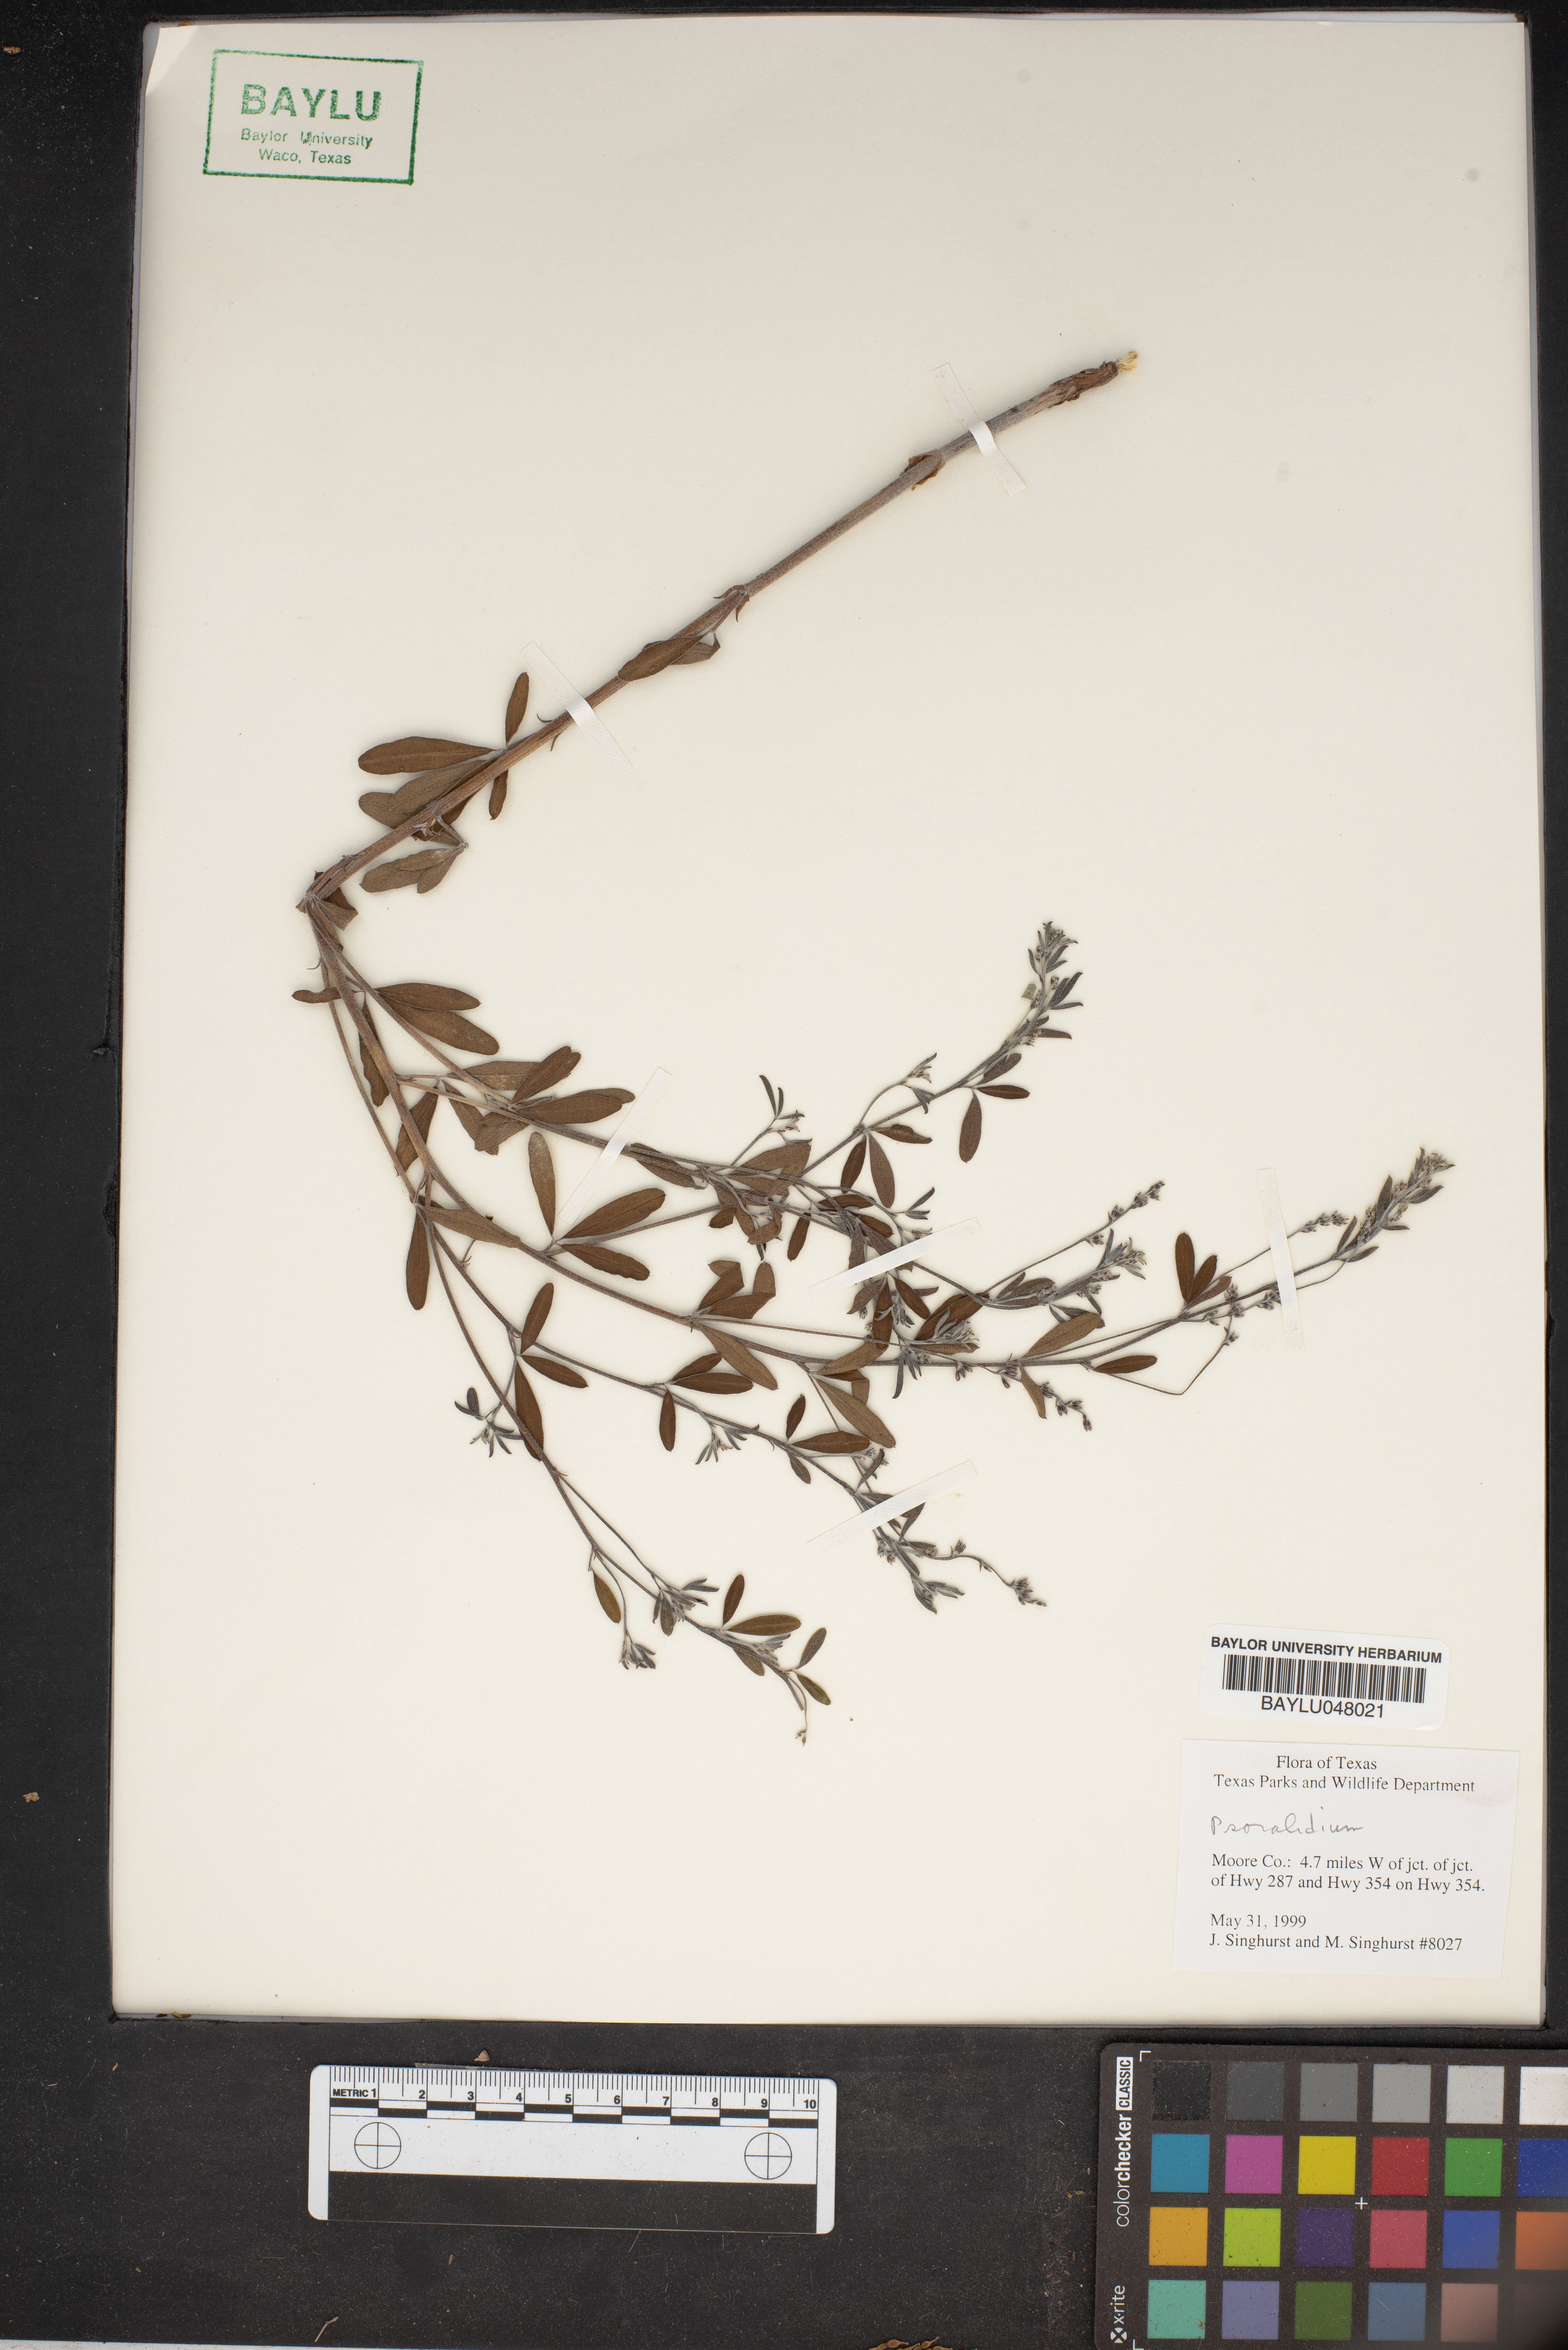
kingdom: Plantae
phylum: Tracheophyta
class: Magnoliopsida
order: Fabales
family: Fabaceae
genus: Pediomelum
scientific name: Pediomelum
